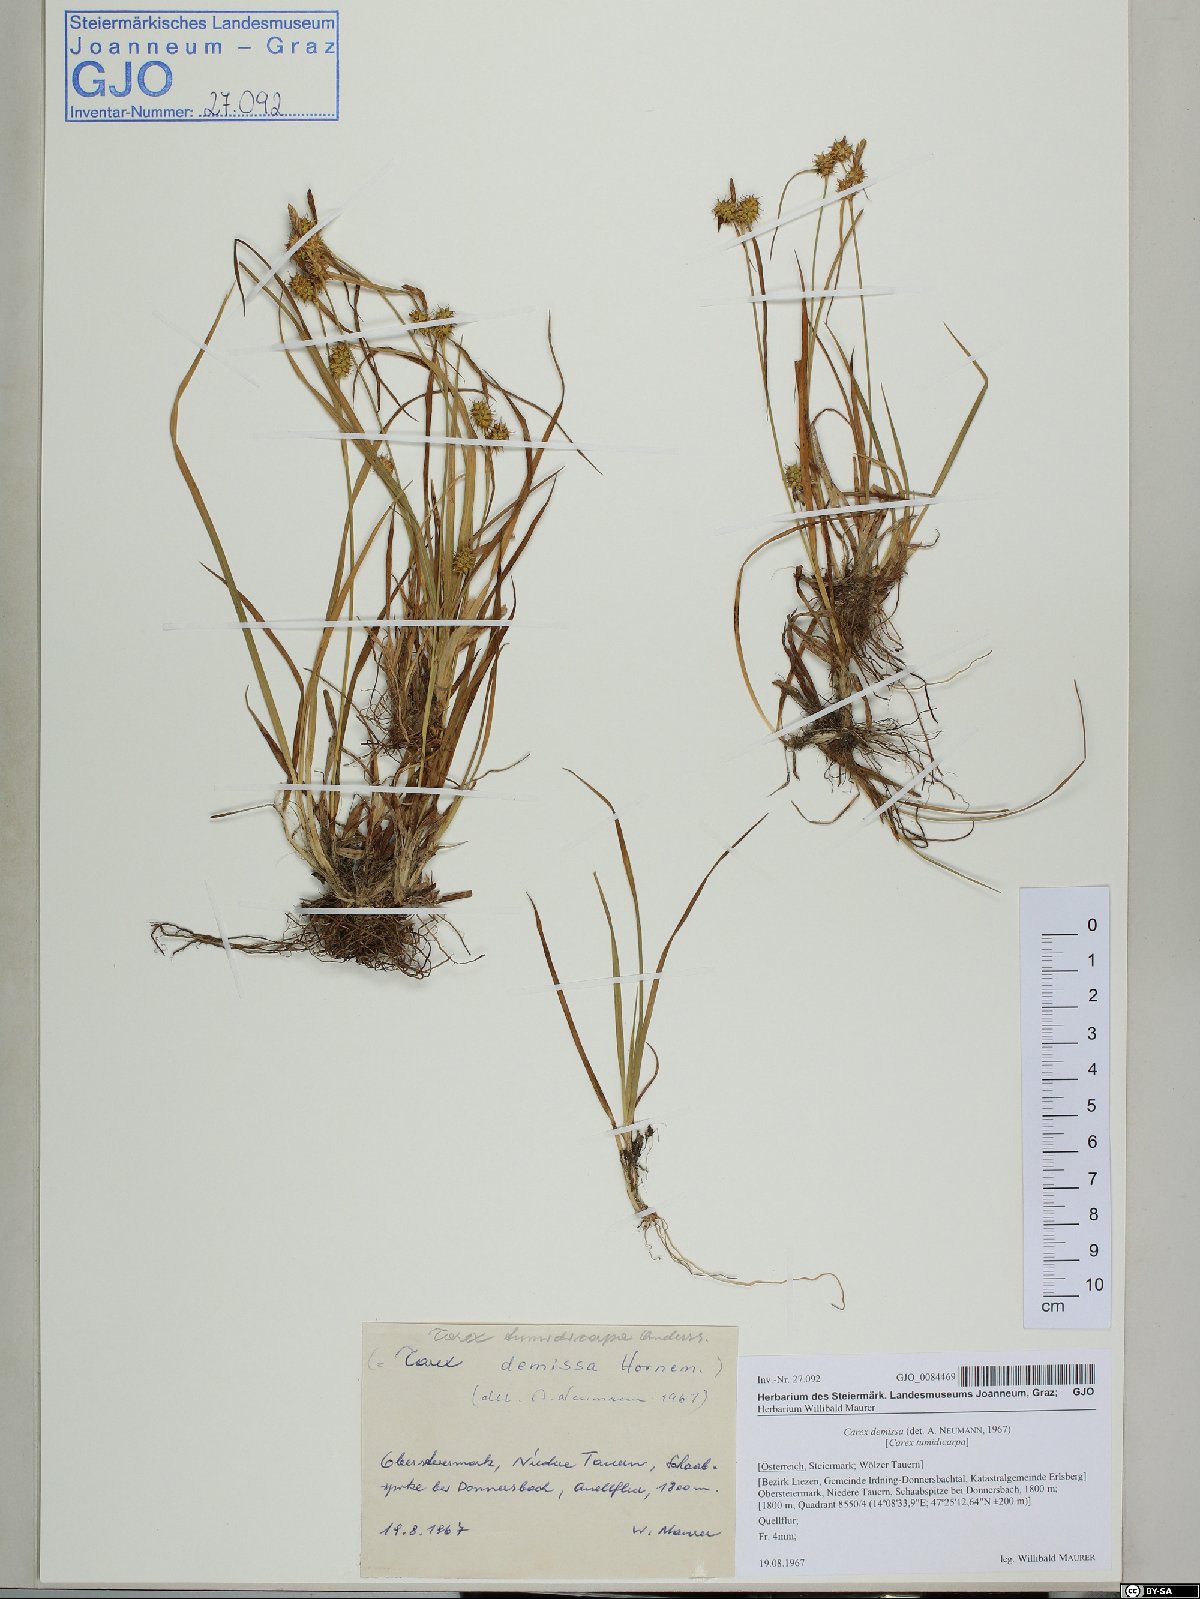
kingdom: Plantae
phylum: Tracheophyta
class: Liliopsida
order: Poales
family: Cyperaceae
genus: Carex
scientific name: Carex demissa
